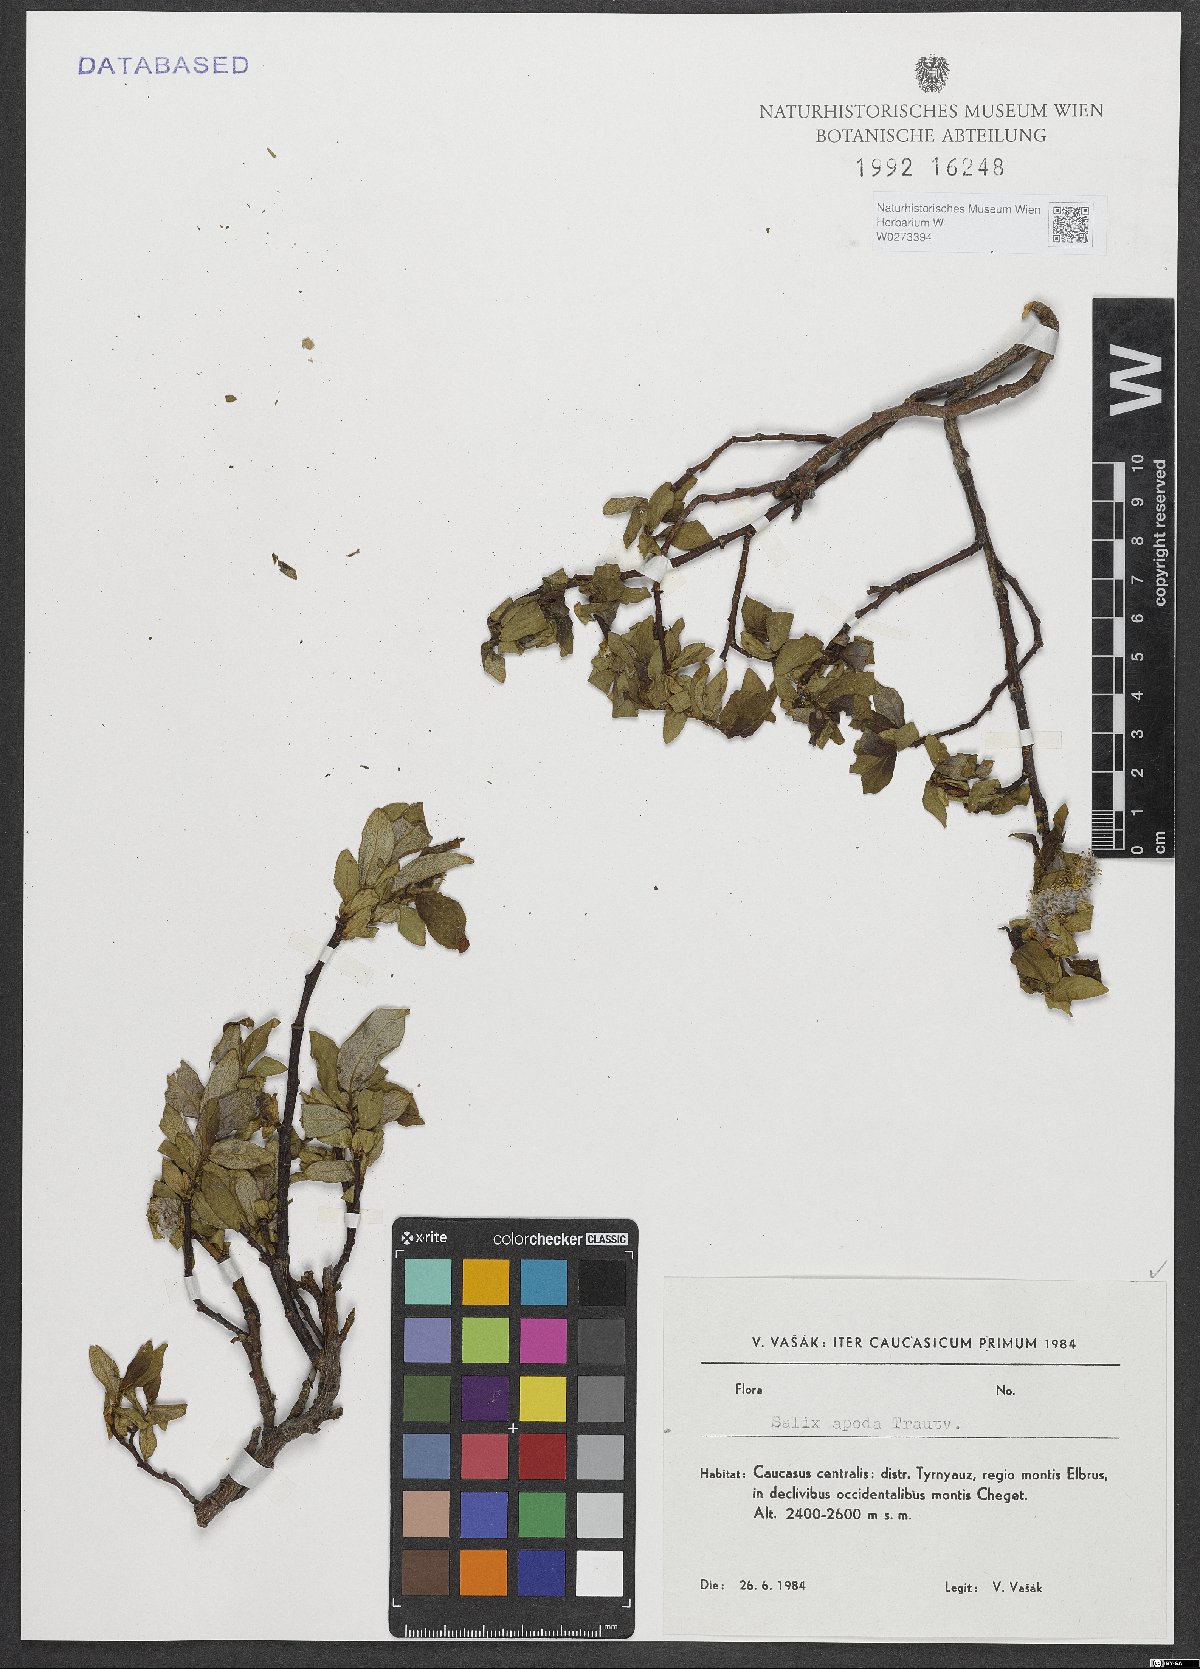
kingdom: Plantae
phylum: Tracheophyta
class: Magnoliopsida
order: Malpighiales
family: Salicaceae
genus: Salix
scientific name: Salix apoda
